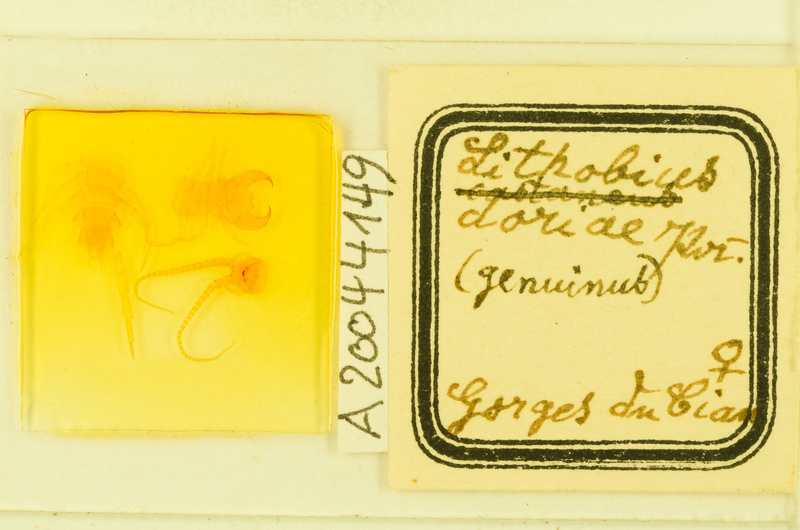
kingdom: Animalia
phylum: Arthropoda
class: Chilopoda
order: Lithobiomorpha
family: Lithobiidae
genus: Lithobius
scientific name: Lithobius pilicornis
